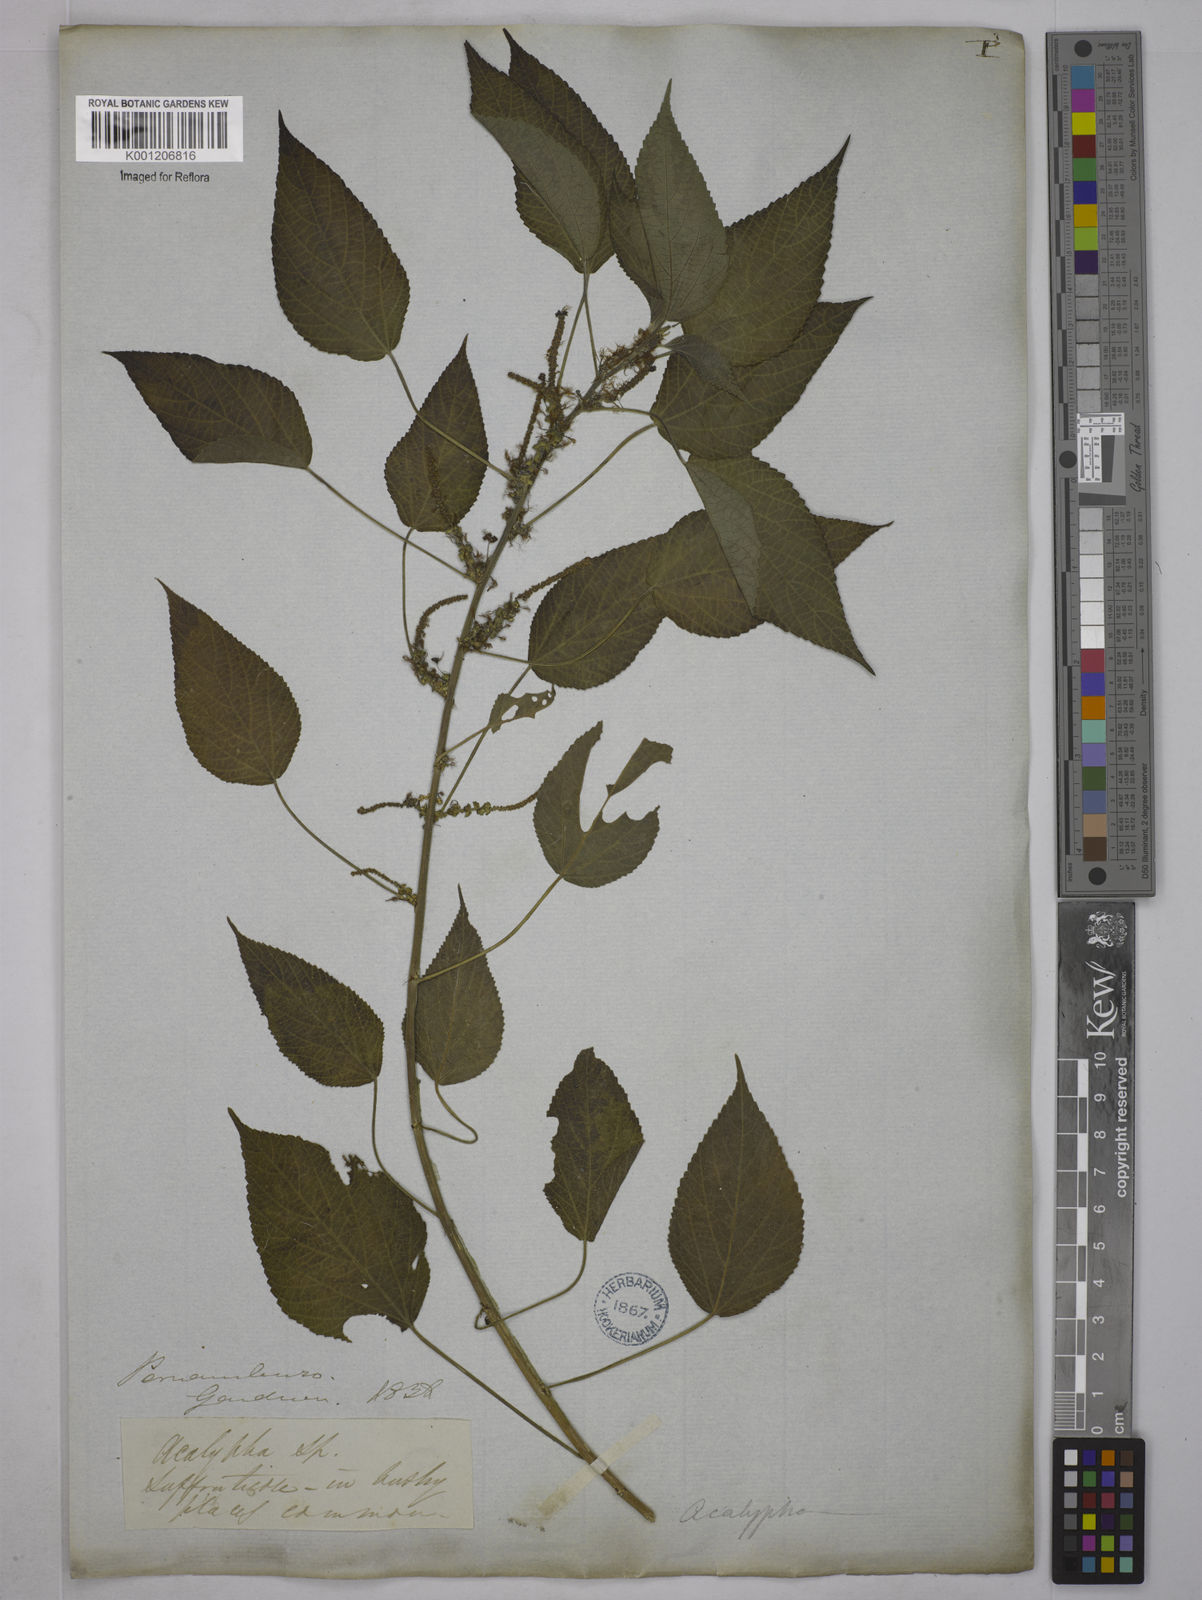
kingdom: Plantae
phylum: Tracheophyta
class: Magnoliopsida
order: Malpighiales
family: Euphorbiaceae
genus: Acalypha
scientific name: Acalypha
